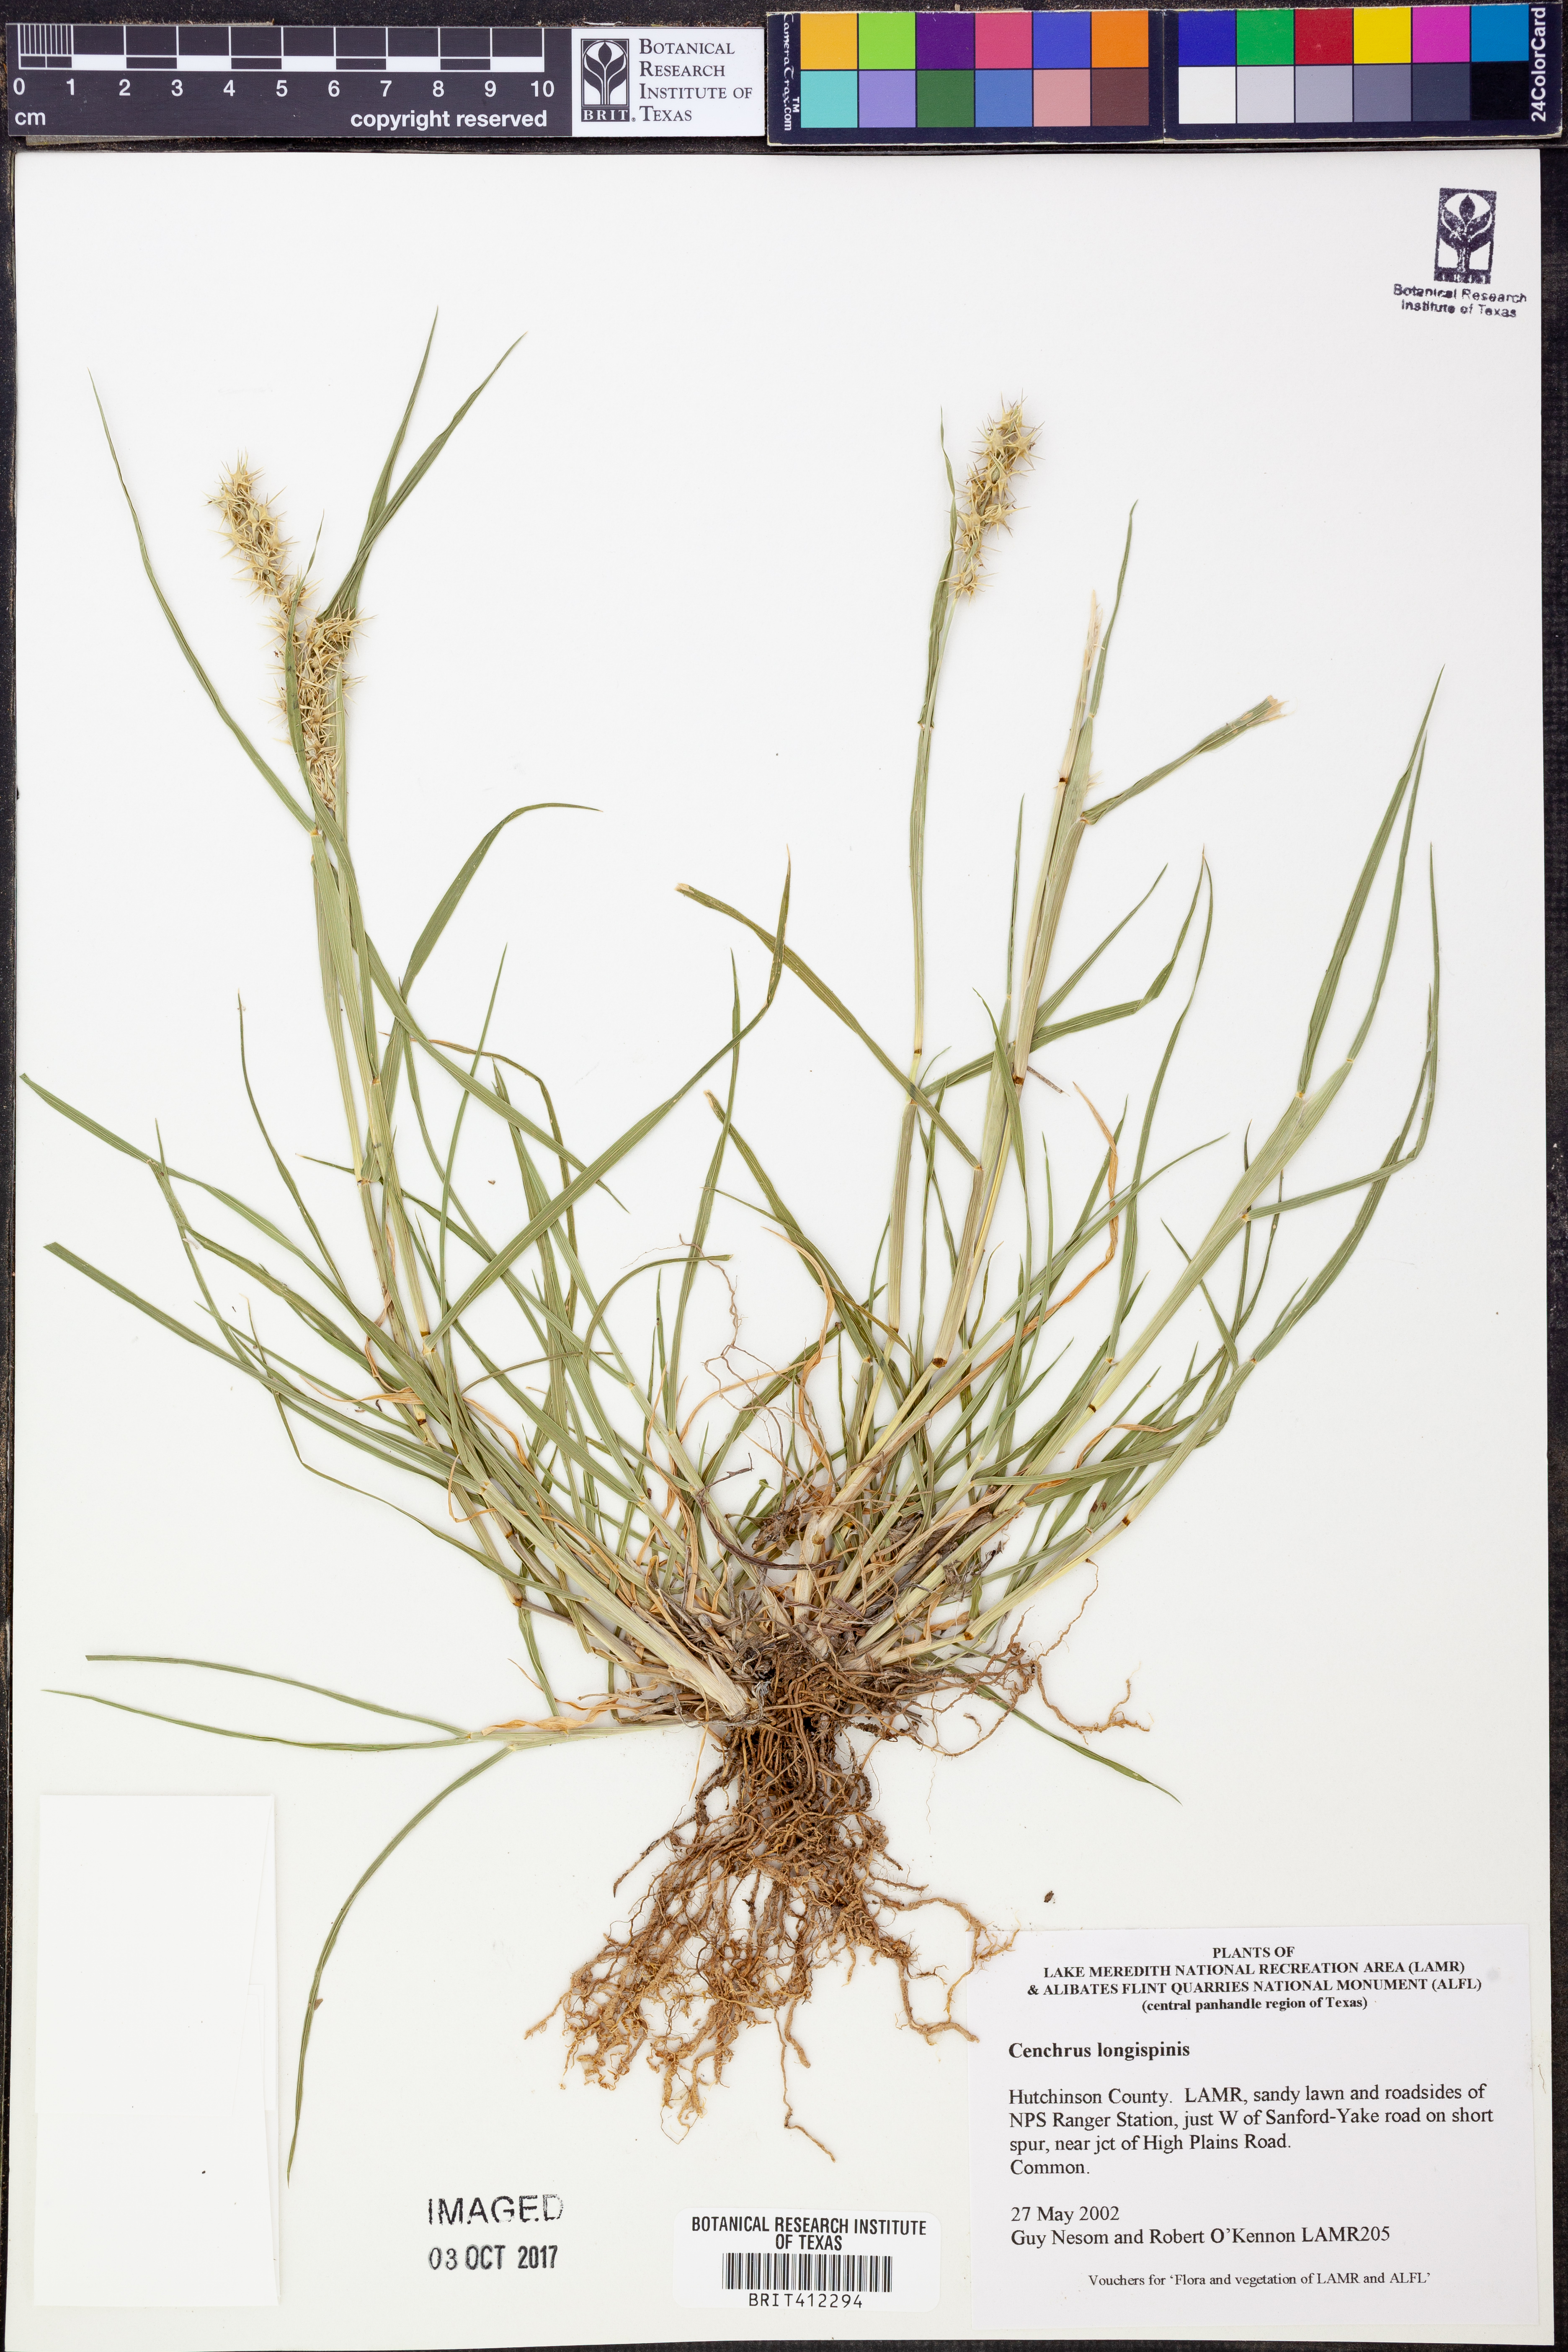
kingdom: Plantae
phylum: Tracheophyta
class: Liliopsida
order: Poales
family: Poaceae
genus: Cenchrus
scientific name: Cenchrus longispinus
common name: Mat sandbur
